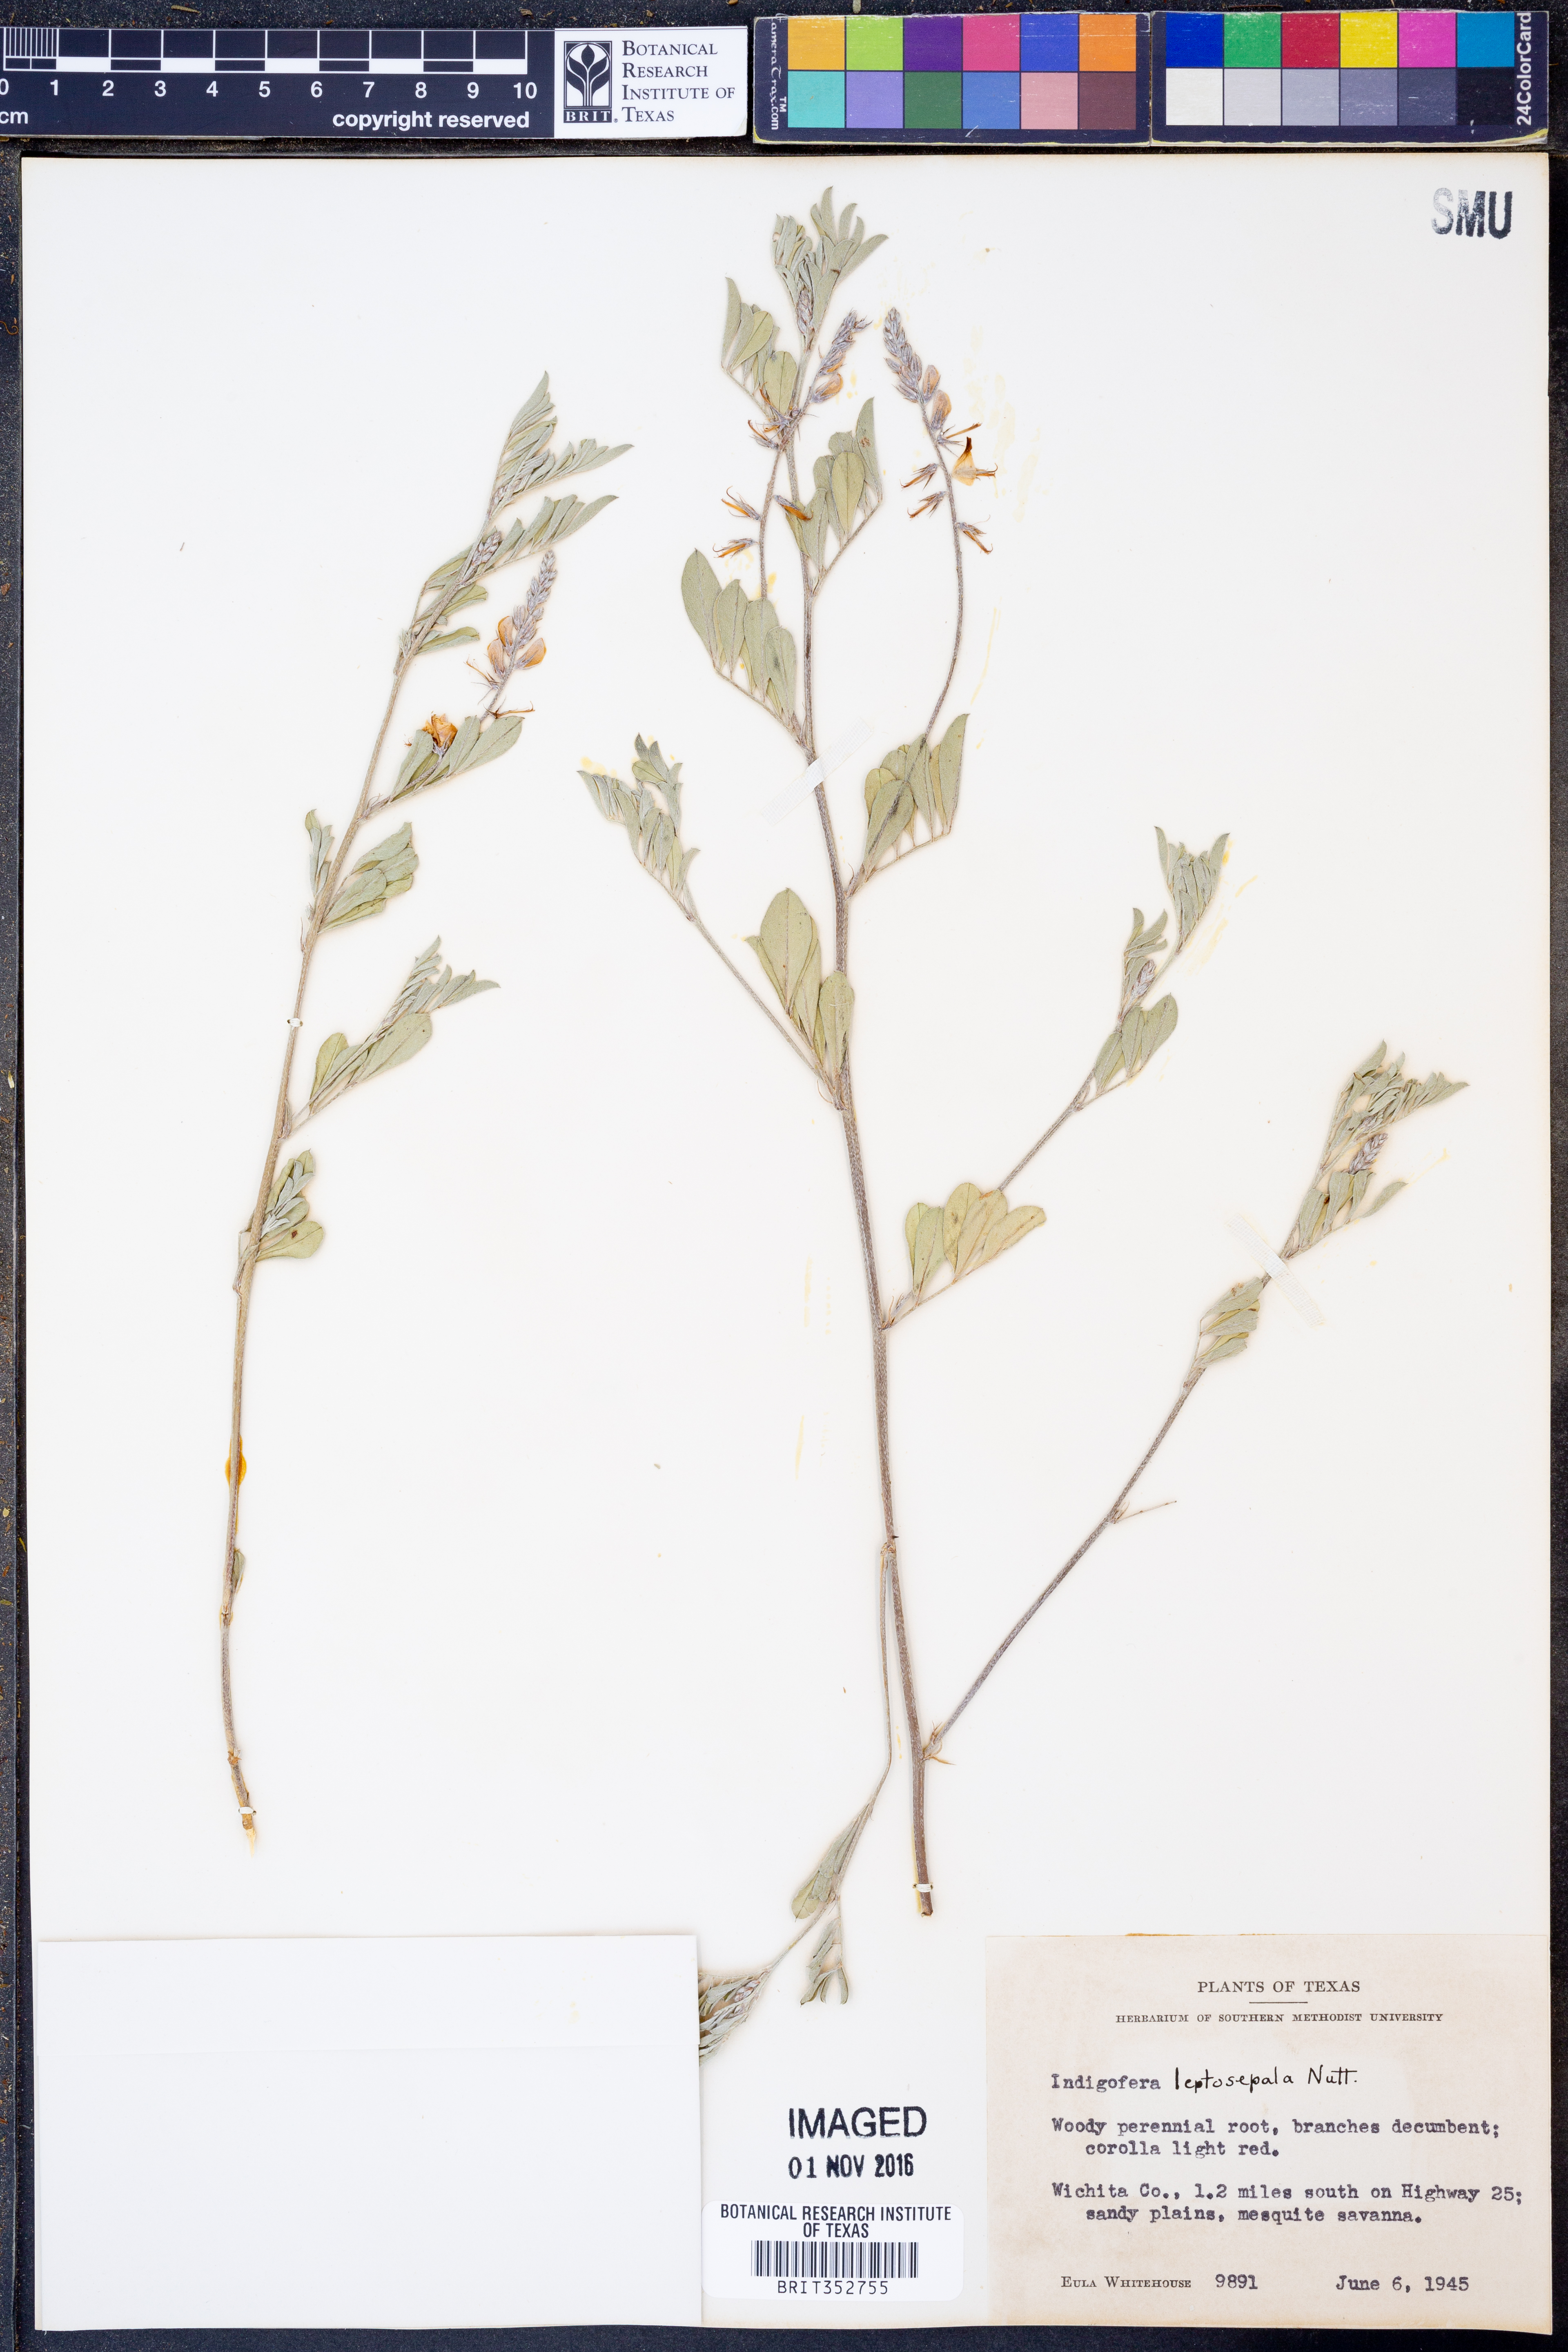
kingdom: Plantae
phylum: Tracheophyta
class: Magnoliopsida
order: Fabales
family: Fabaceae
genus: Indigofera
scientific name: Indigofera argutidens
